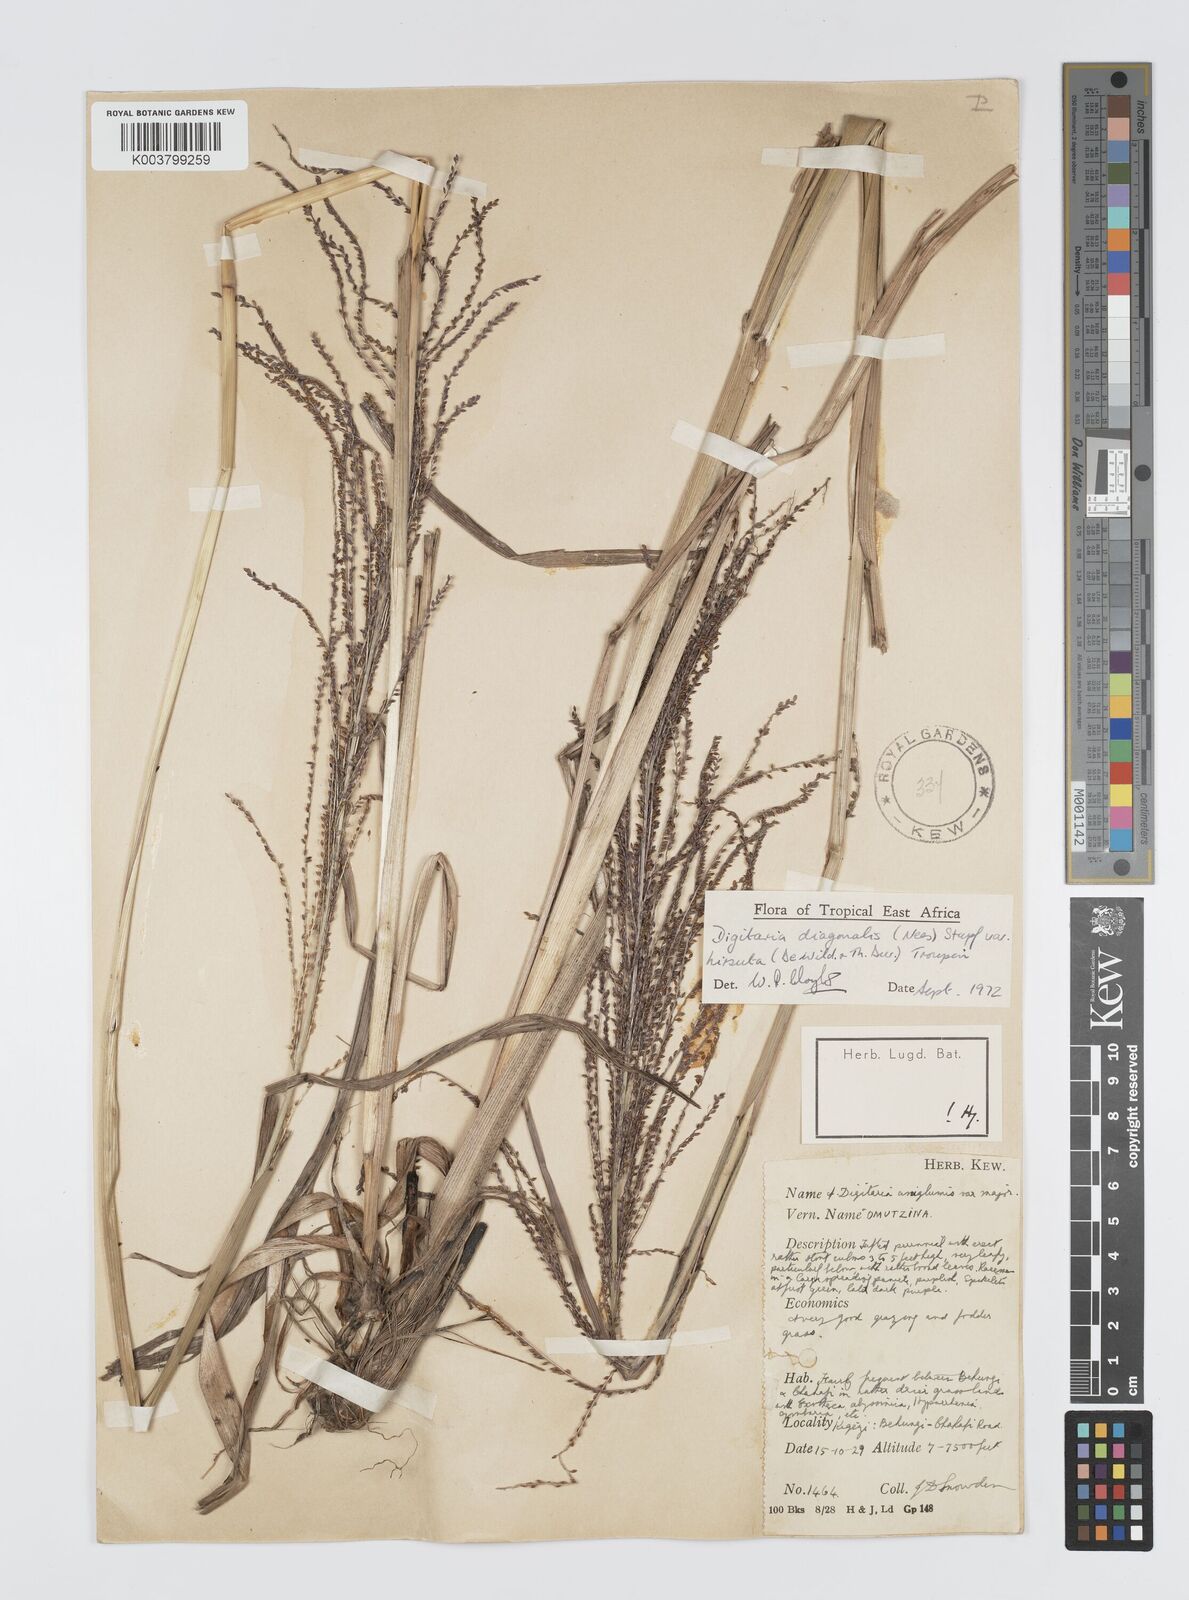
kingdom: Plantae
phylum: Tracheophyta
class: Liliopsida
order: Poales
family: Poaceae
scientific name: Poaceae
